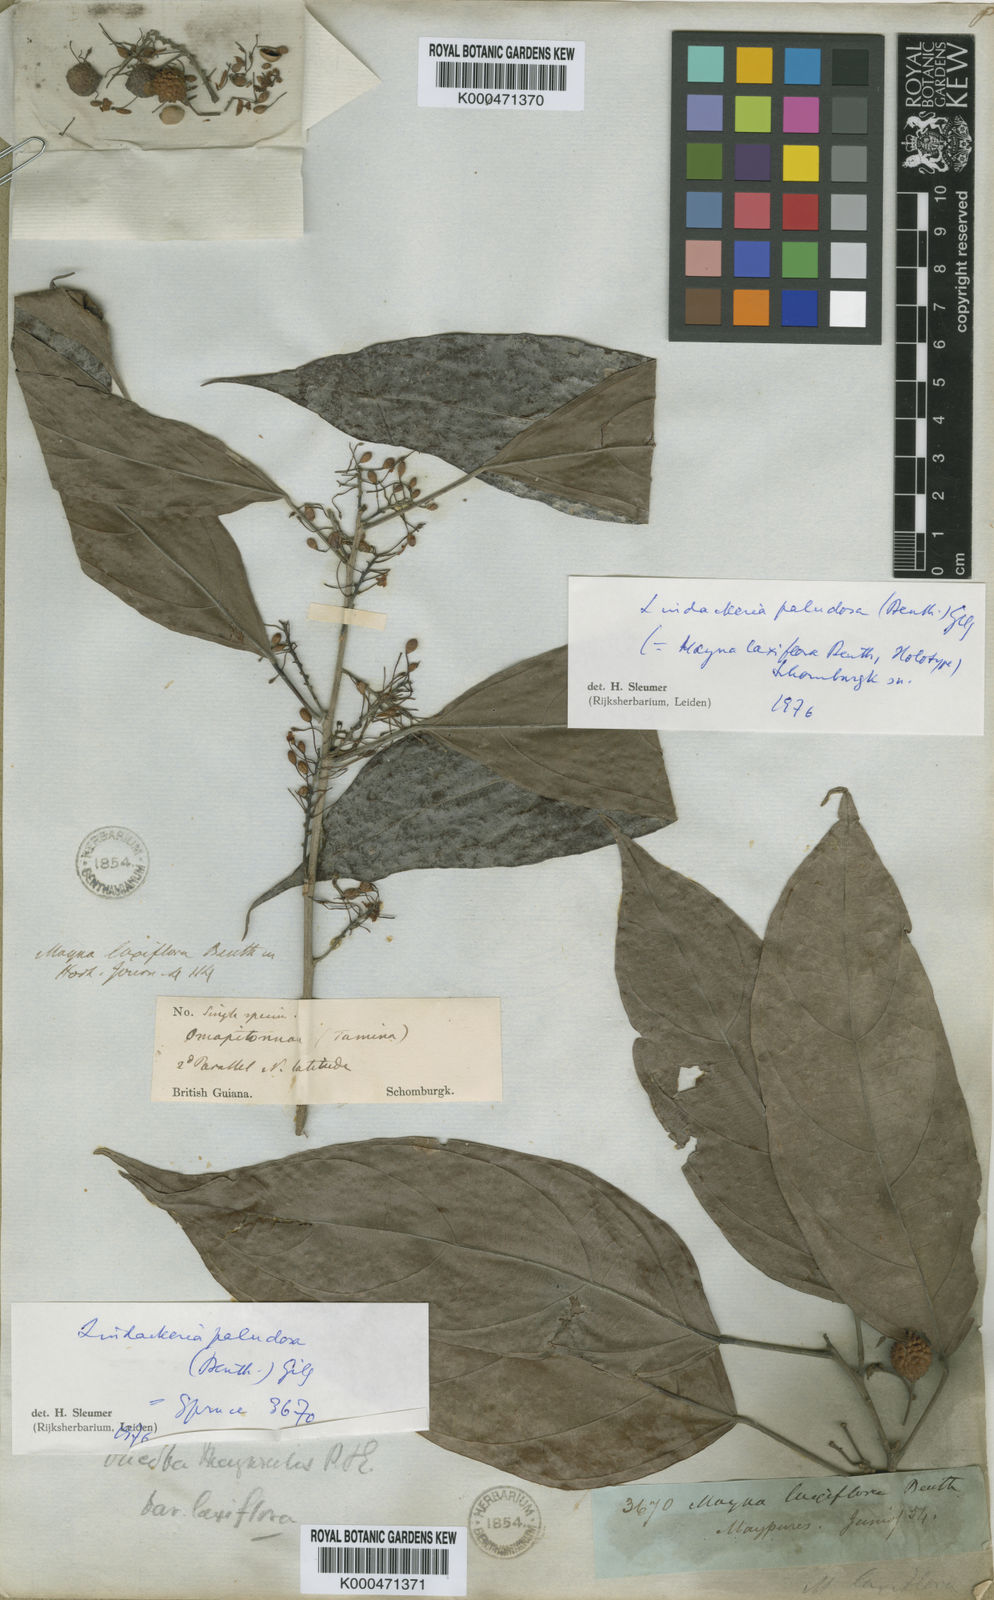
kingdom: Plantae
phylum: Tracheophyta
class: Magnoliopsida
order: Malpighiales
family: Achariaceae
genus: Mayna
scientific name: Mayna
